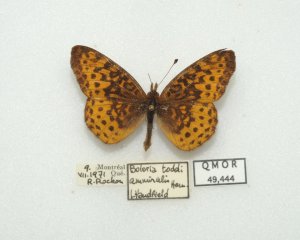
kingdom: Animalia
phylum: Arthropoda
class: Insecta
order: Lepidoptera
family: Nymphalidae
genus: Clossiana
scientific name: Clossiana toddi
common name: Meadow Fritillary
